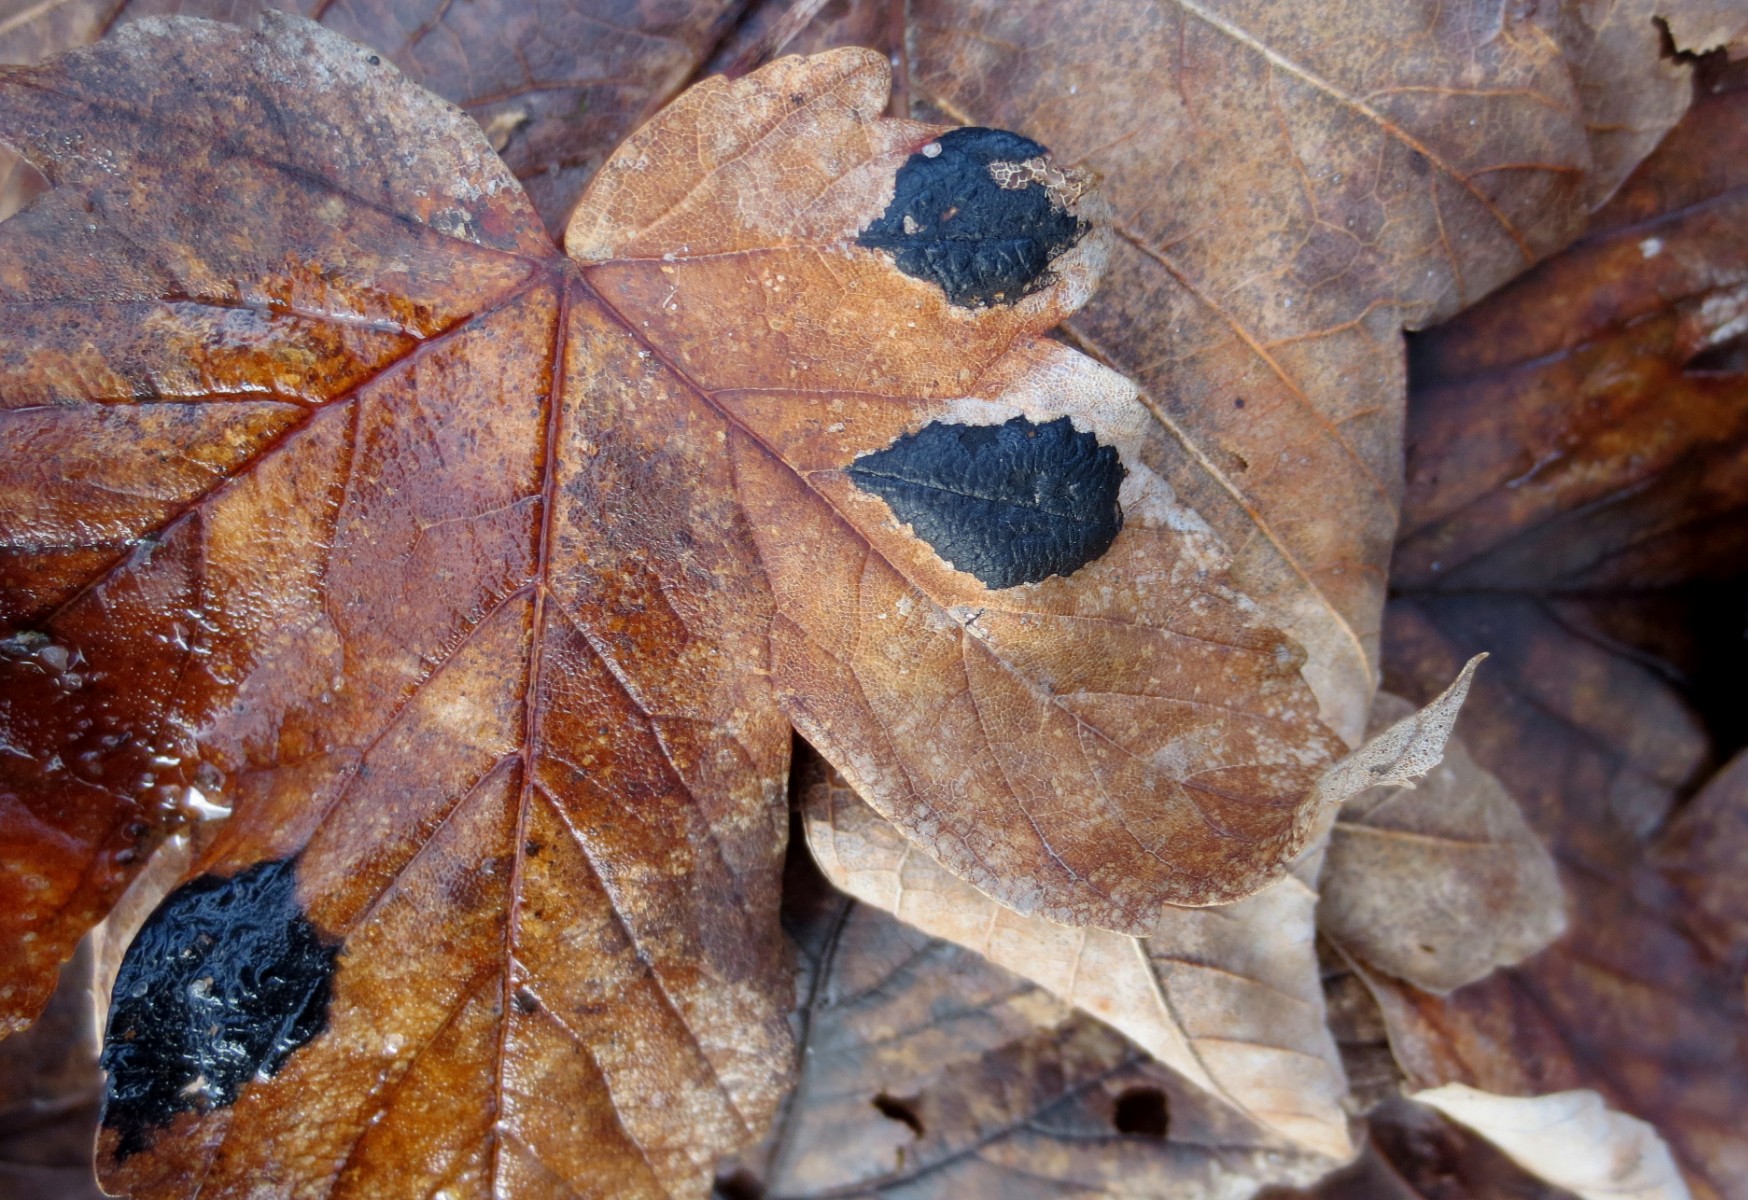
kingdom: Fungi
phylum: Ascomycota
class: Leotiomycetes
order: Rhytismatales
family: Rhytismataceae
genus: Rhytisma
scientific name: Rhytisma acerinum
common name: ahorn-rynkeplet
